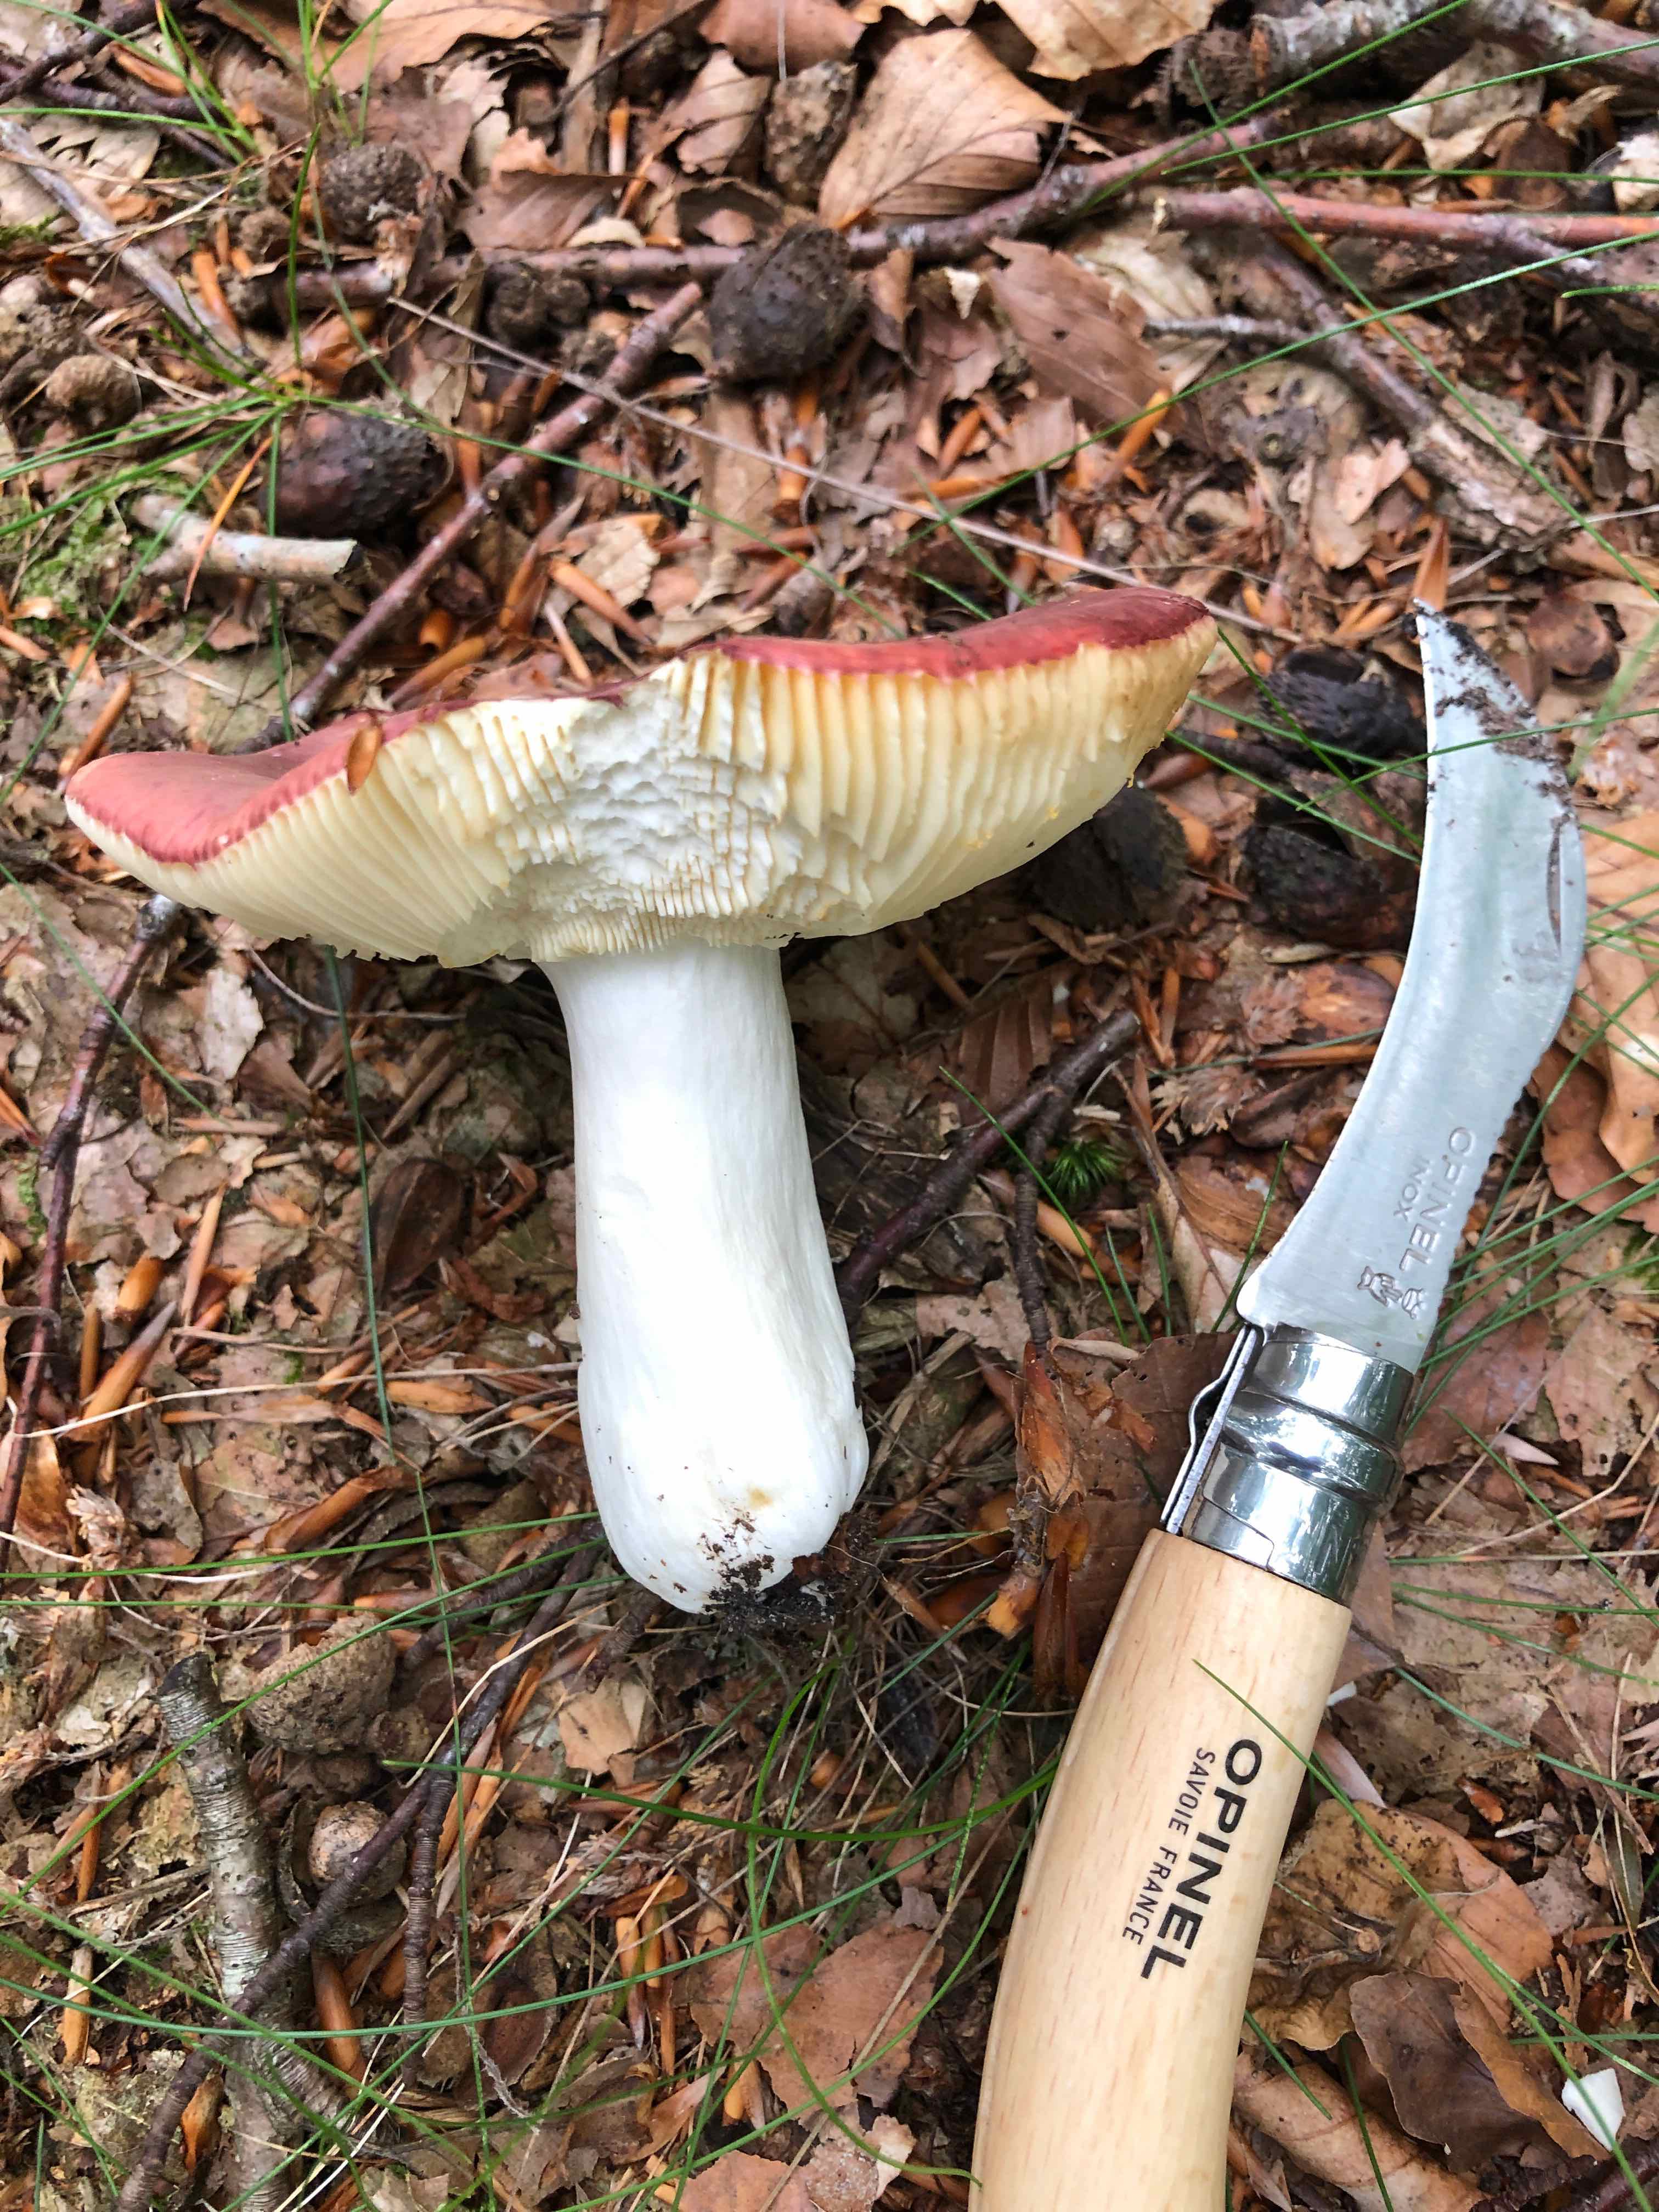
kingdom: Fungi
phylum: Basidiomycota
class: Agaricomycetes
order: Russulales
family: Russulaceae
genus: Russula
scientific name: Russula
